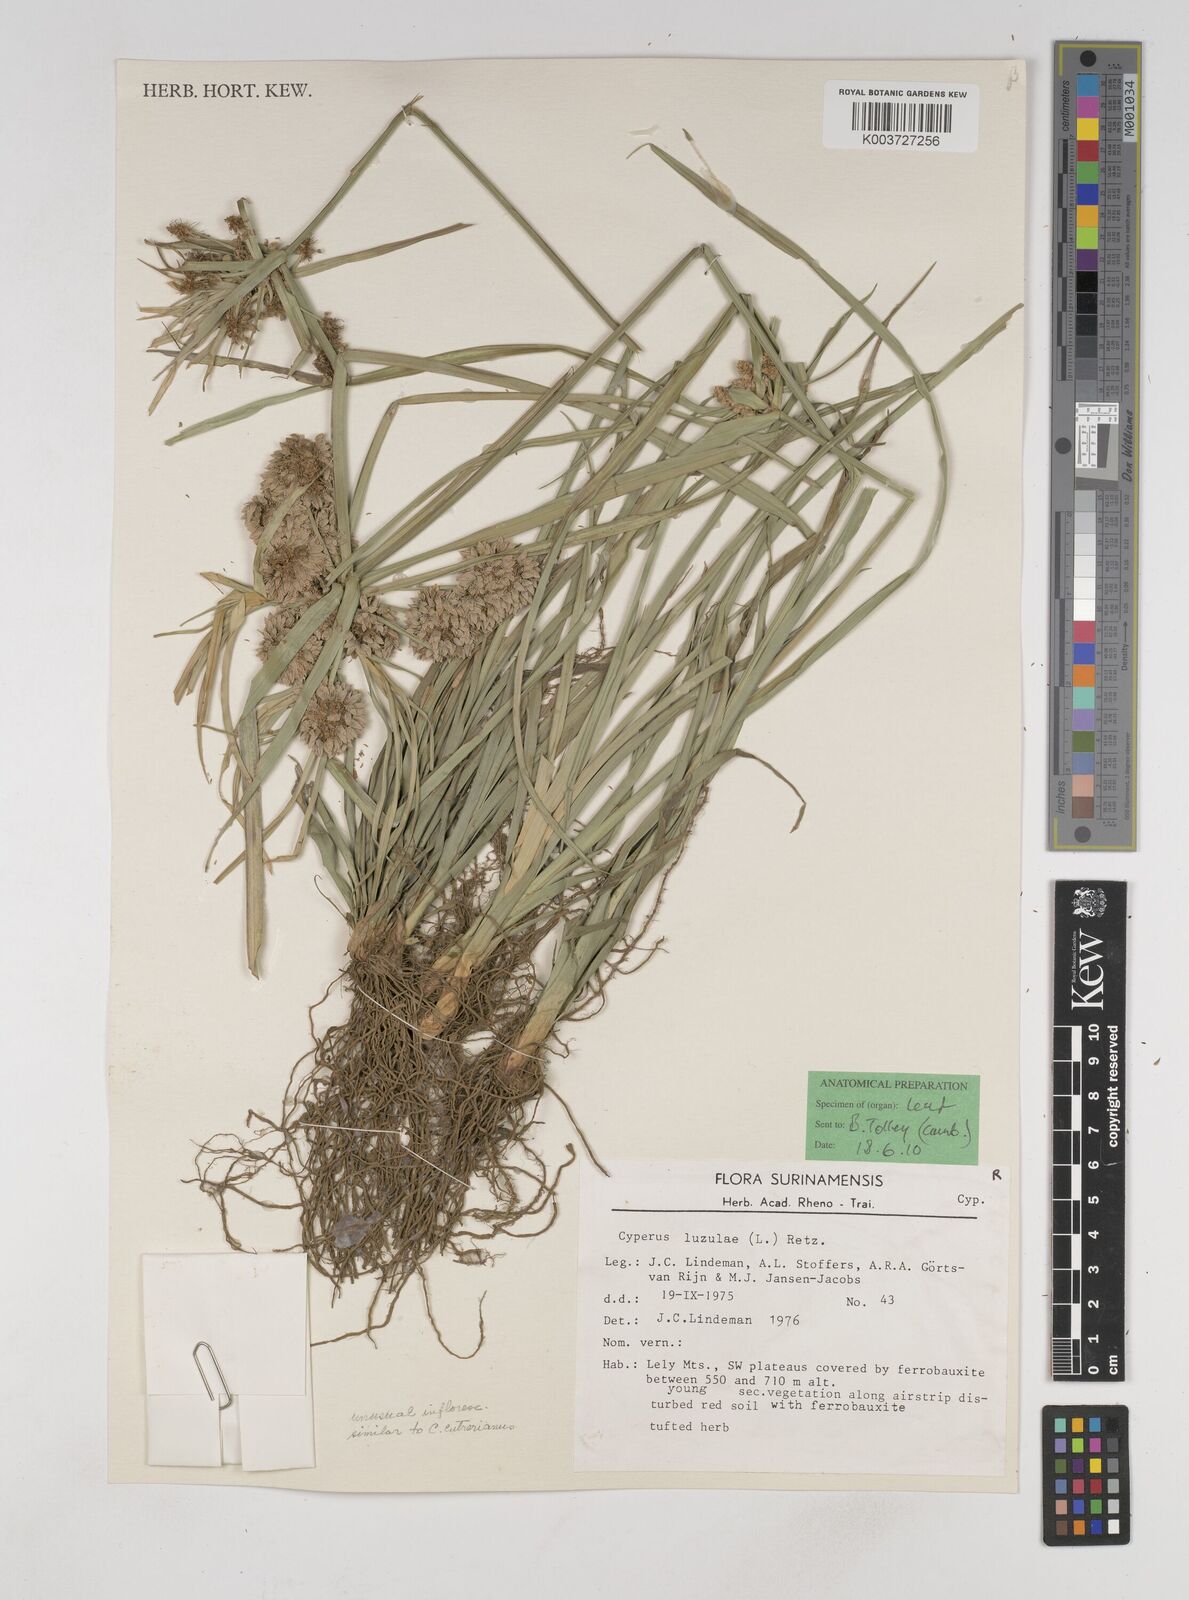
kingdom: Plantae
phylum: Tracheophyta
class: Liliopsida
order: Poales
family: Cyperaceae
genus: Cyperus
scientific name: Cyperus luzulae
